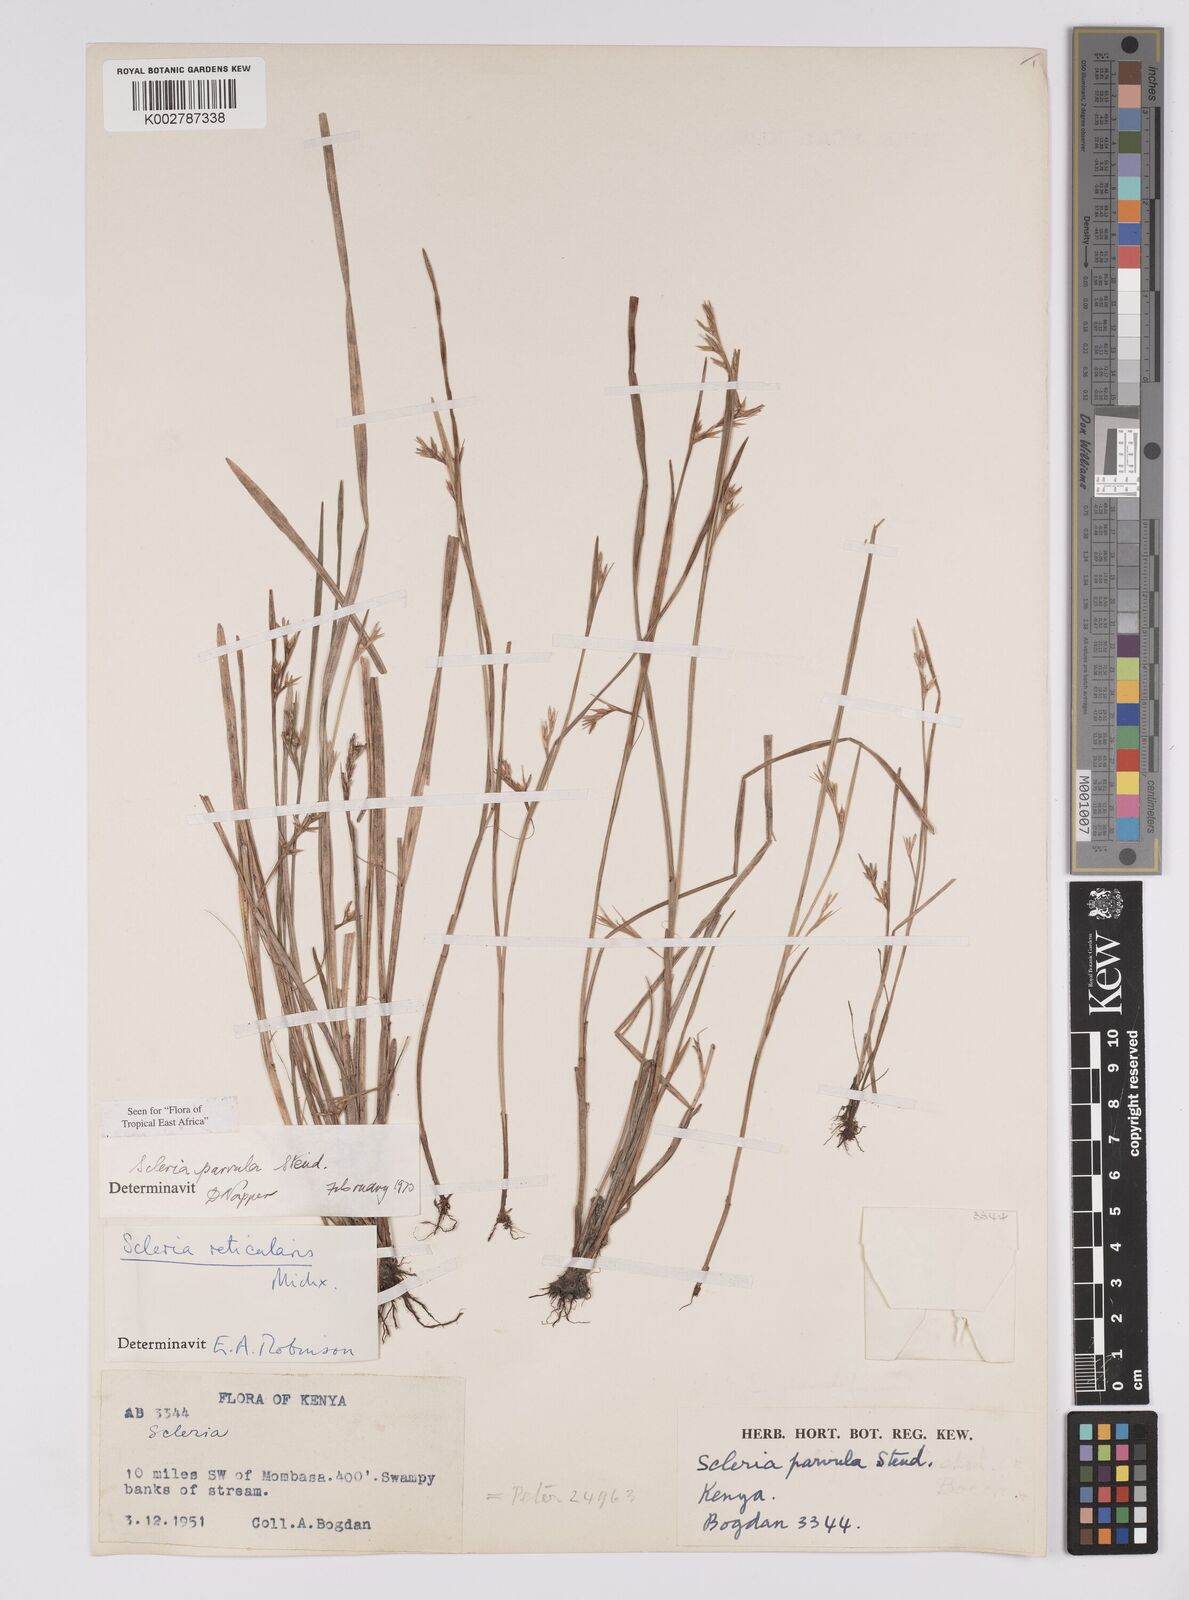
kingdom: Plantae
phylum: Tracheophyta
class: Liliopsida
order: Poales
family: Cyperaceae
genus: Scleria
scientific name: Scleria parvula
